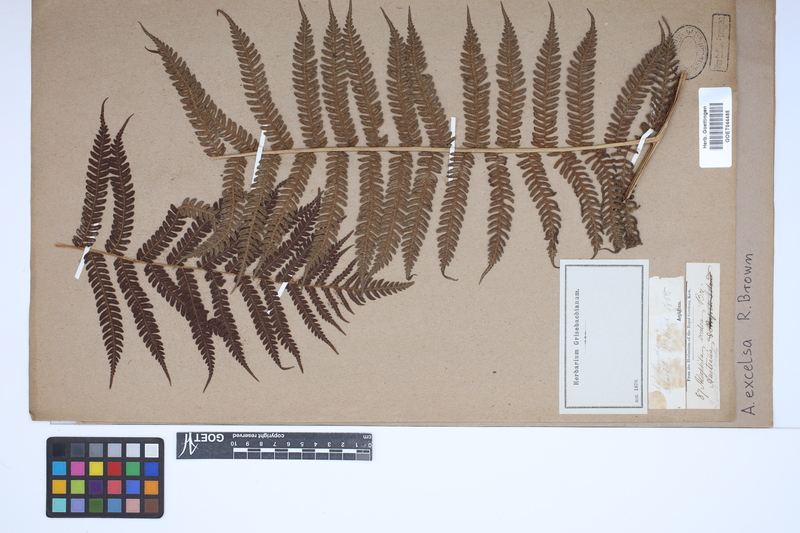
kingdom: Plantae
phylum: Tracheophyta
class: Polypodiopsida
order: Cyatheales
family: Cyatheaceae
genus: Sphaeropteris
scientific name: Sphaeropteris excelsa
